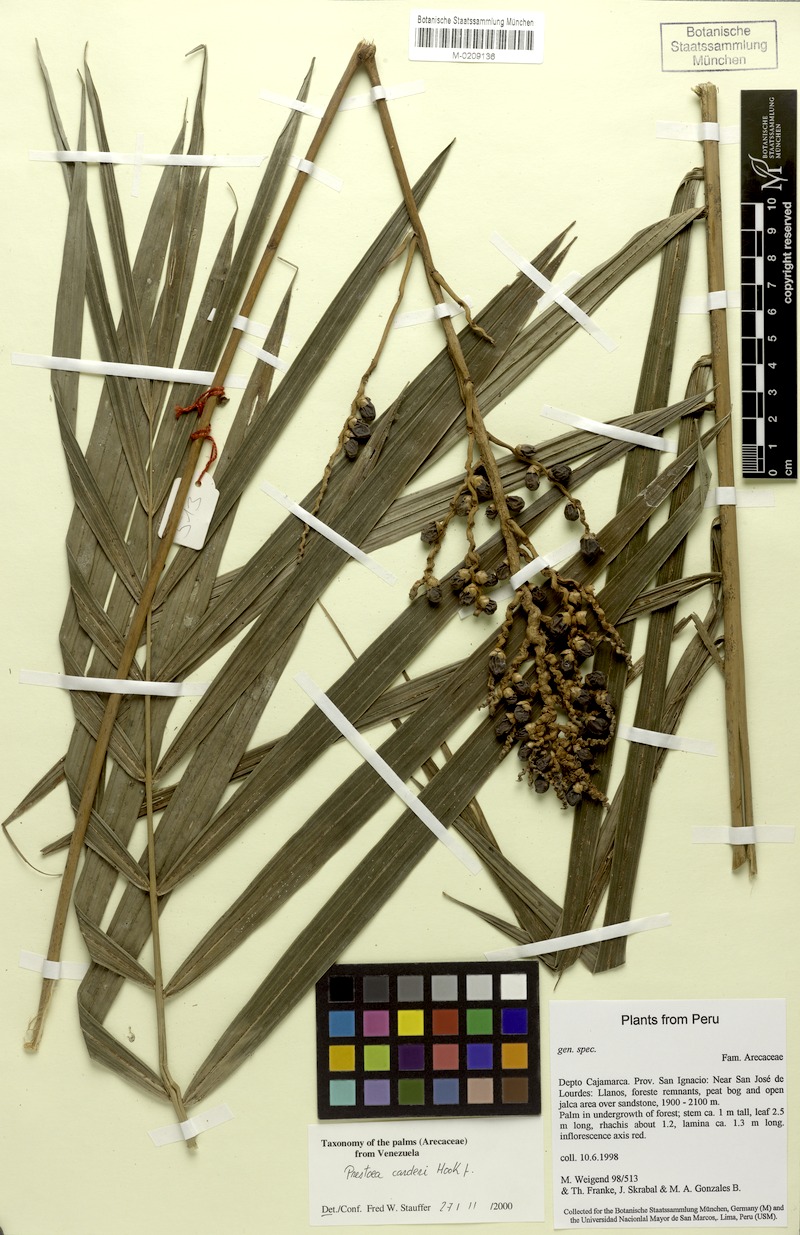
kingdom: Plantae
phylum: Tracheophyta
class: Liliopsida
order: Arecales
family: Arecaceae
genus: Prestoea
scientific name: Prestoea carderi
